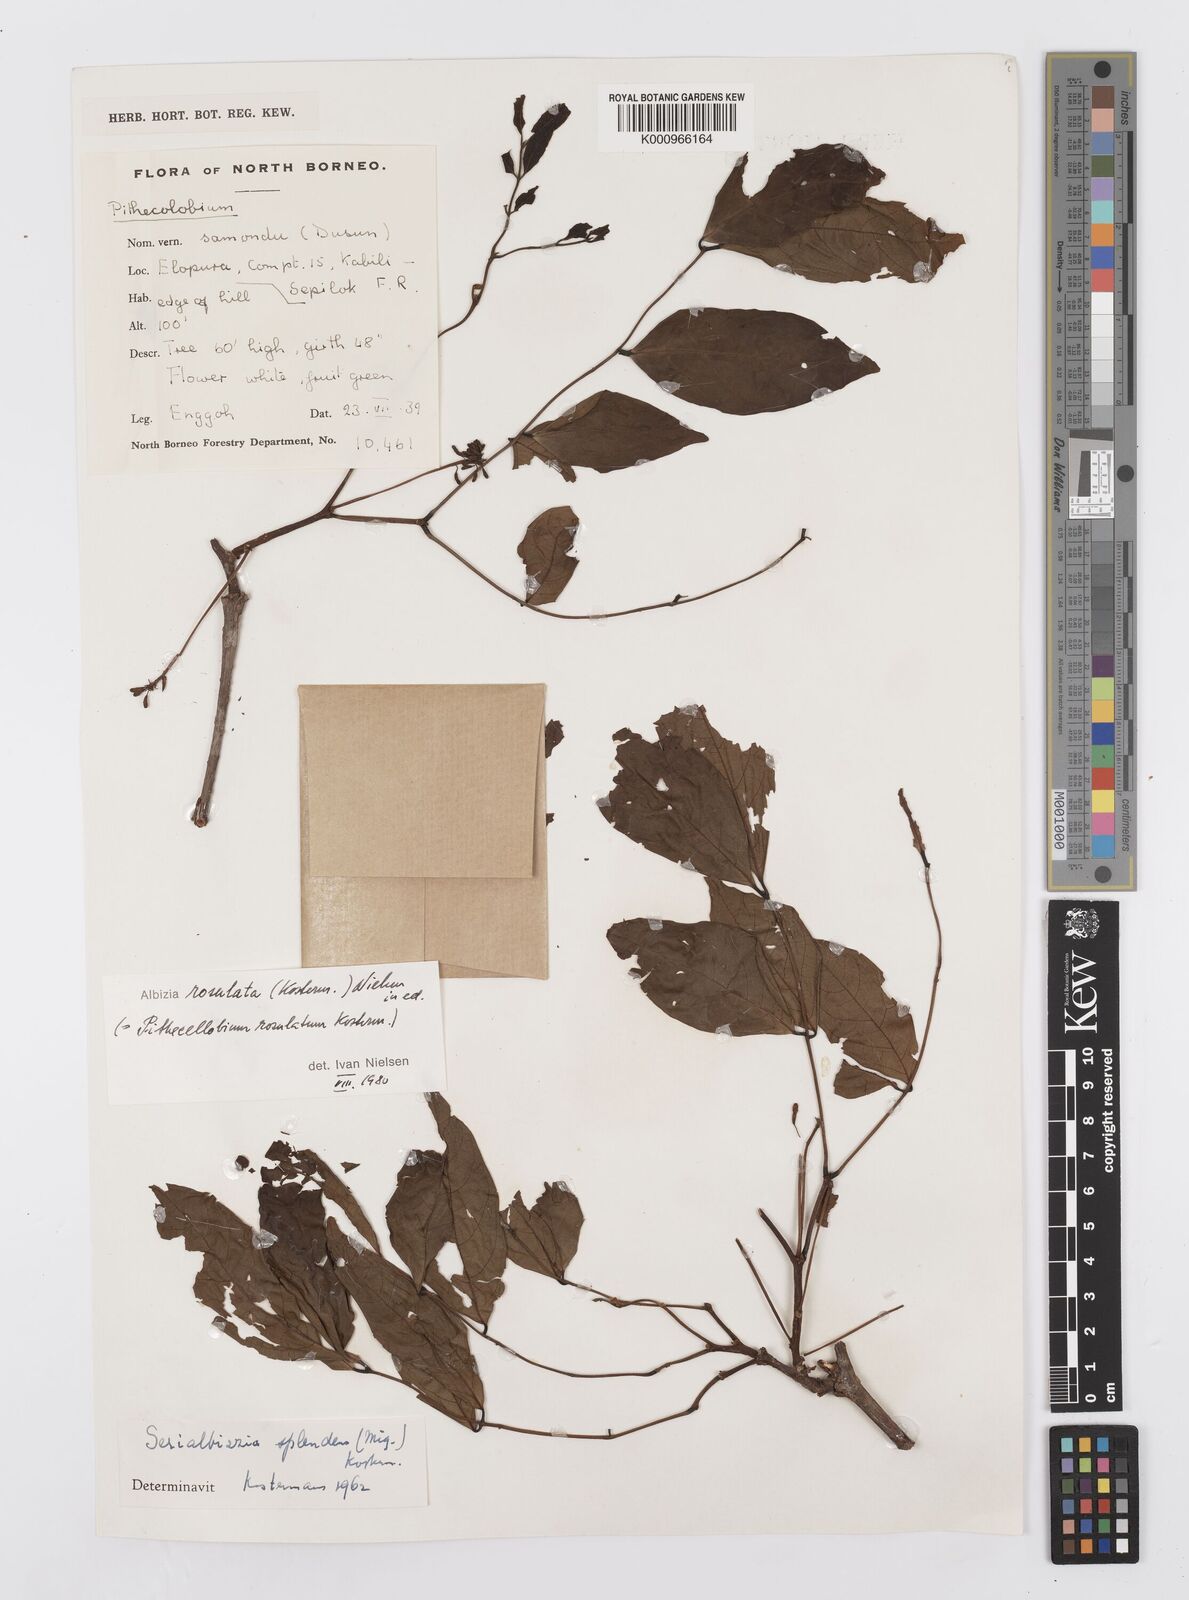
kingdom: Plantae
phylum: Tracheophyta
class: Magnoliopsida
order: Fabales
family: Fabaceae
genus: Albizia
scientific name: Albizia rosulata
